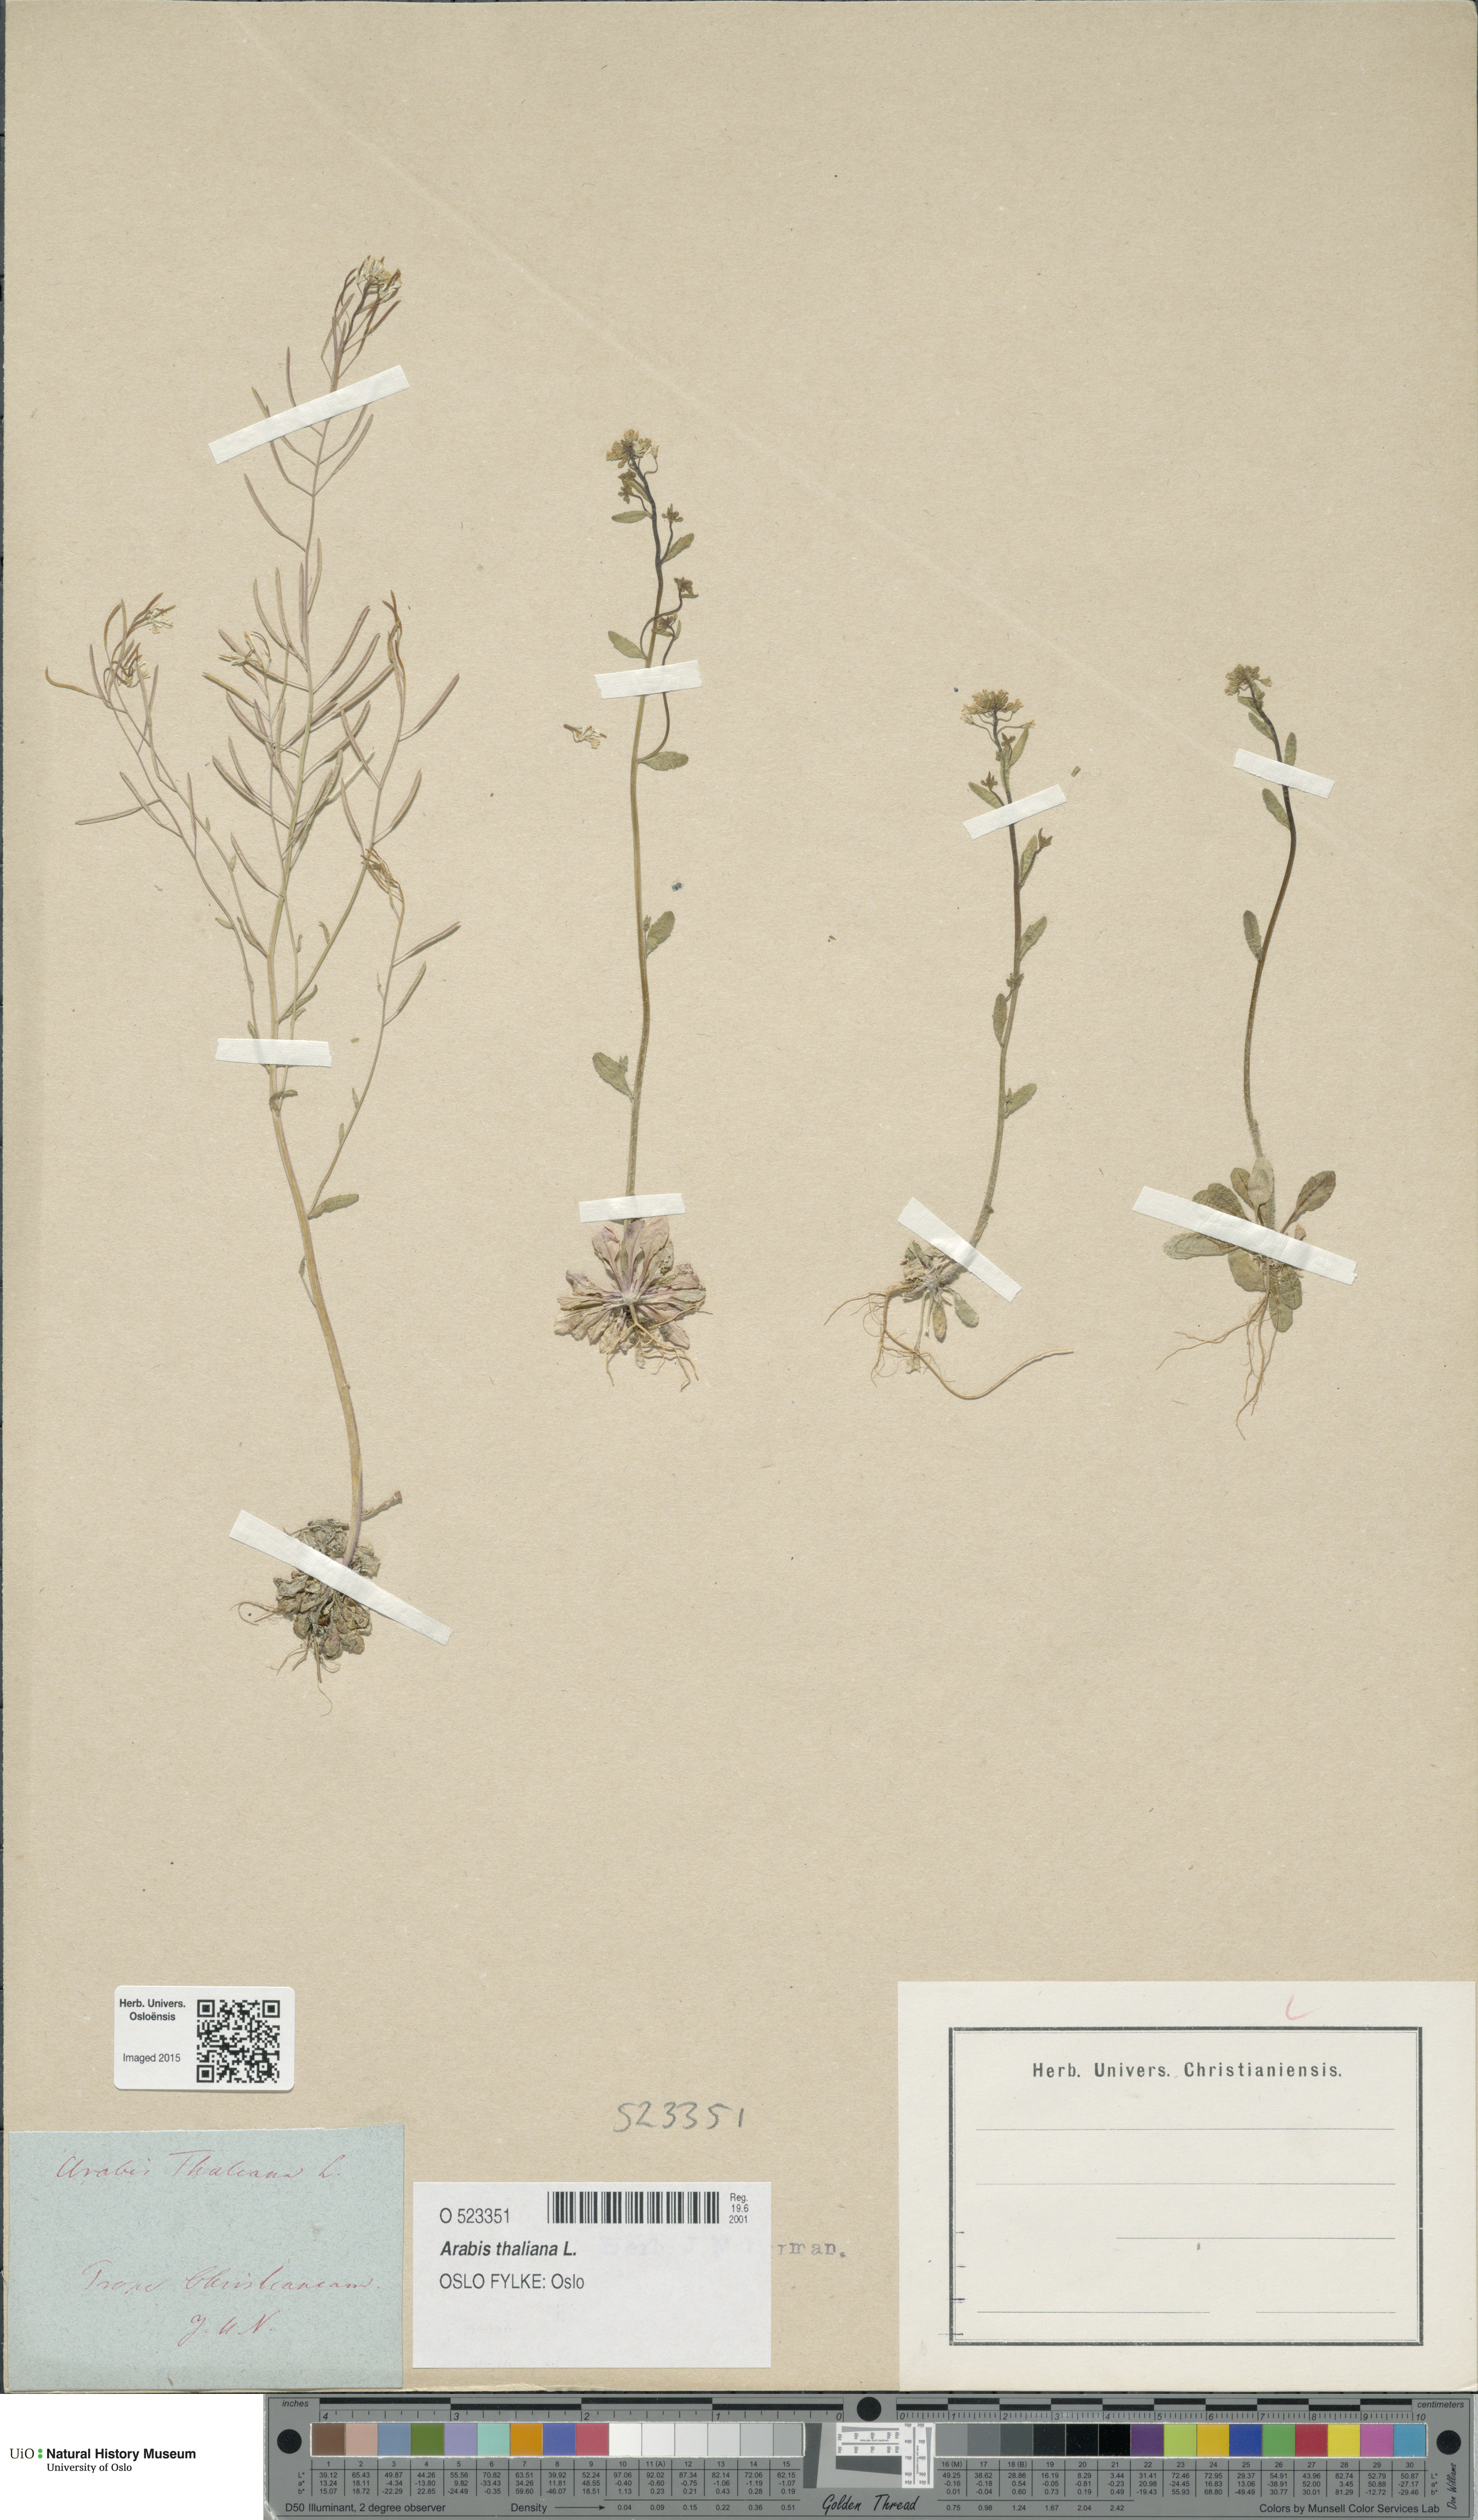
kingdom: Plantae
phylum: Tracheophyta
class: Magnoliopsida
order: Brassicales
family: Brassicaceae
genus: Arabidopsis
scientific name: Arabidopsis thaliana
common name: Thale cress
